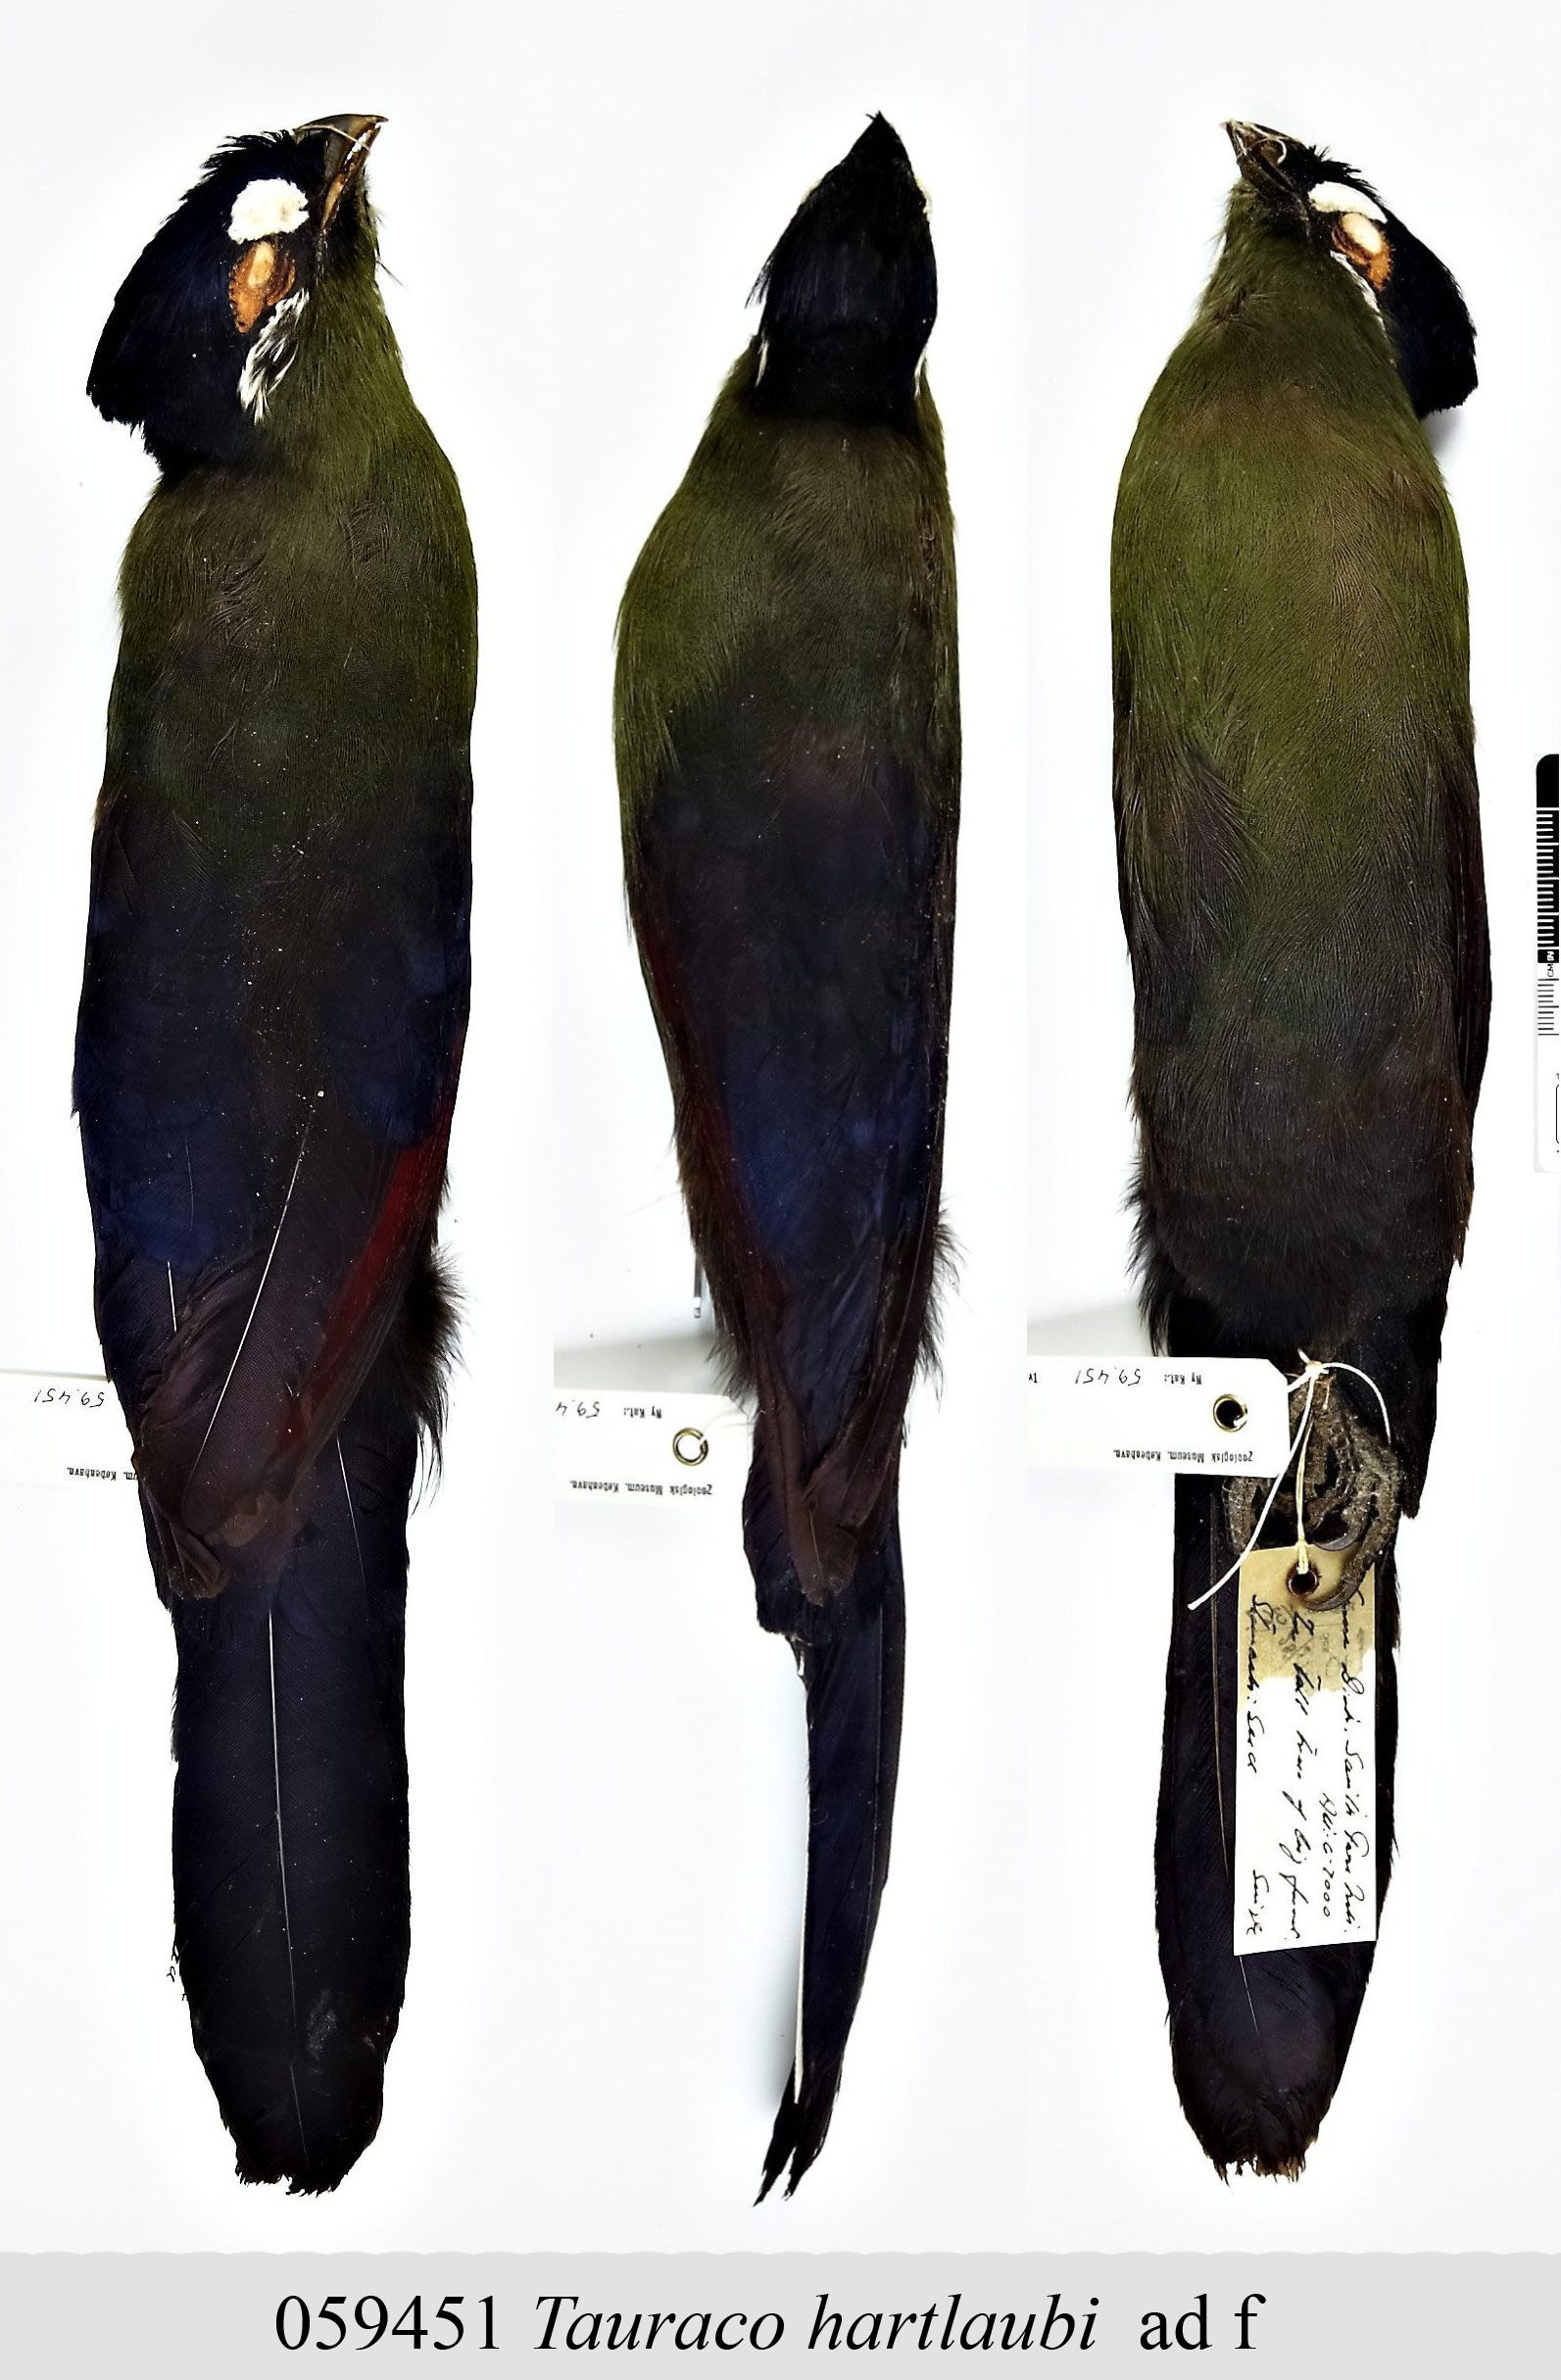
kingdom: Animalia
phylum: Chordata
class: Aves
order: Musophagiformes
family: Musophagidae
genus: Tauraco
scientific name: Tauraco hartlaubi
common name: Hartlaub's turaco
